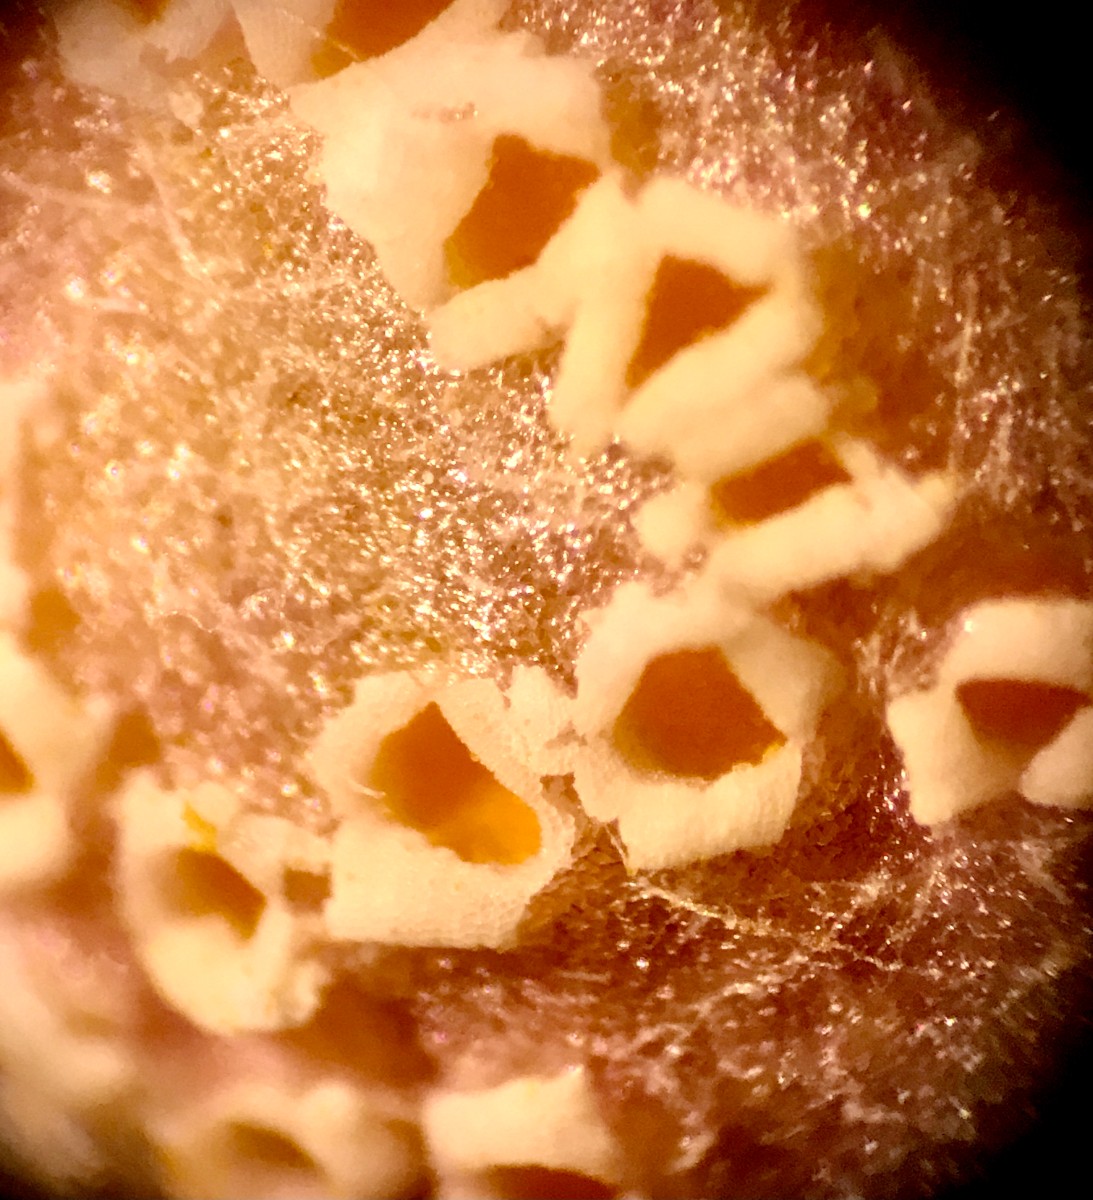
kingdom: Fungi
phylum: Basidiomycota
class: Pucciniomycetes
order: Pucciniales
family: Pucciniaceae
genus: Puccinia
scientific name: Puccinia poarum
